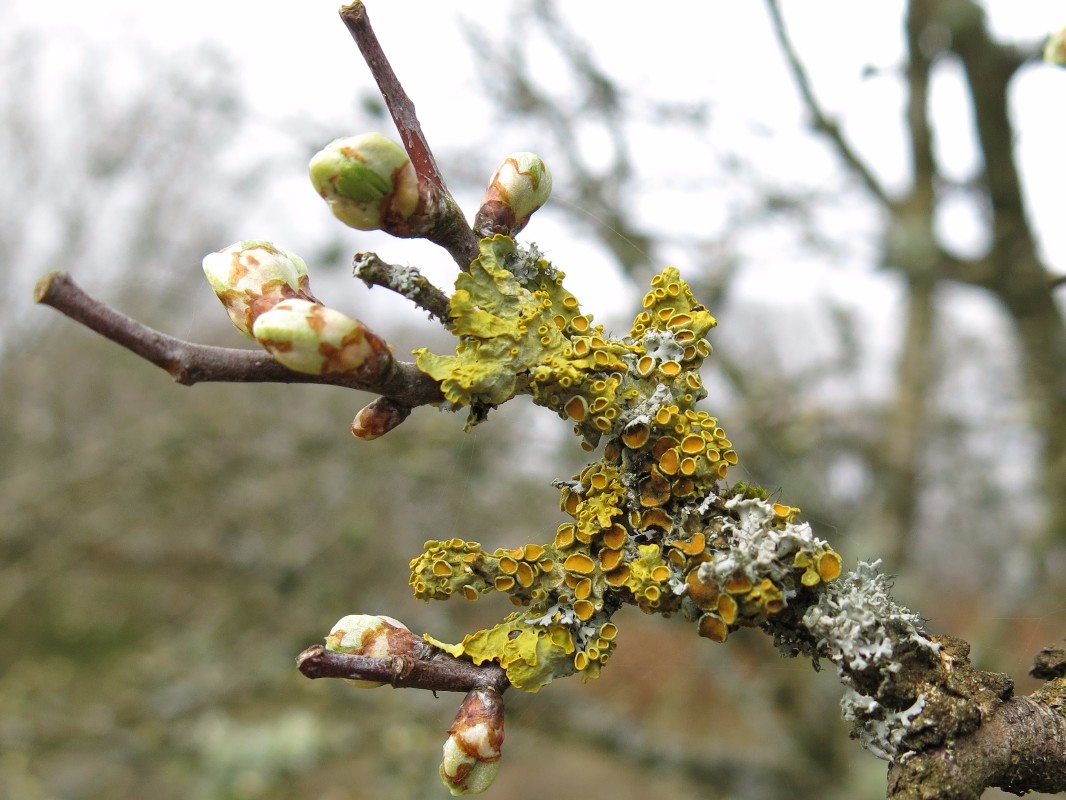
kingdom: Fungi
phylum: Ascomycota
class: Lecanoromycetes
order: Teloschistales
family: Teloschistaceae
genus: Xanthoria
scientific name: Xanthoria parietina
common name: almindelig væggelav
